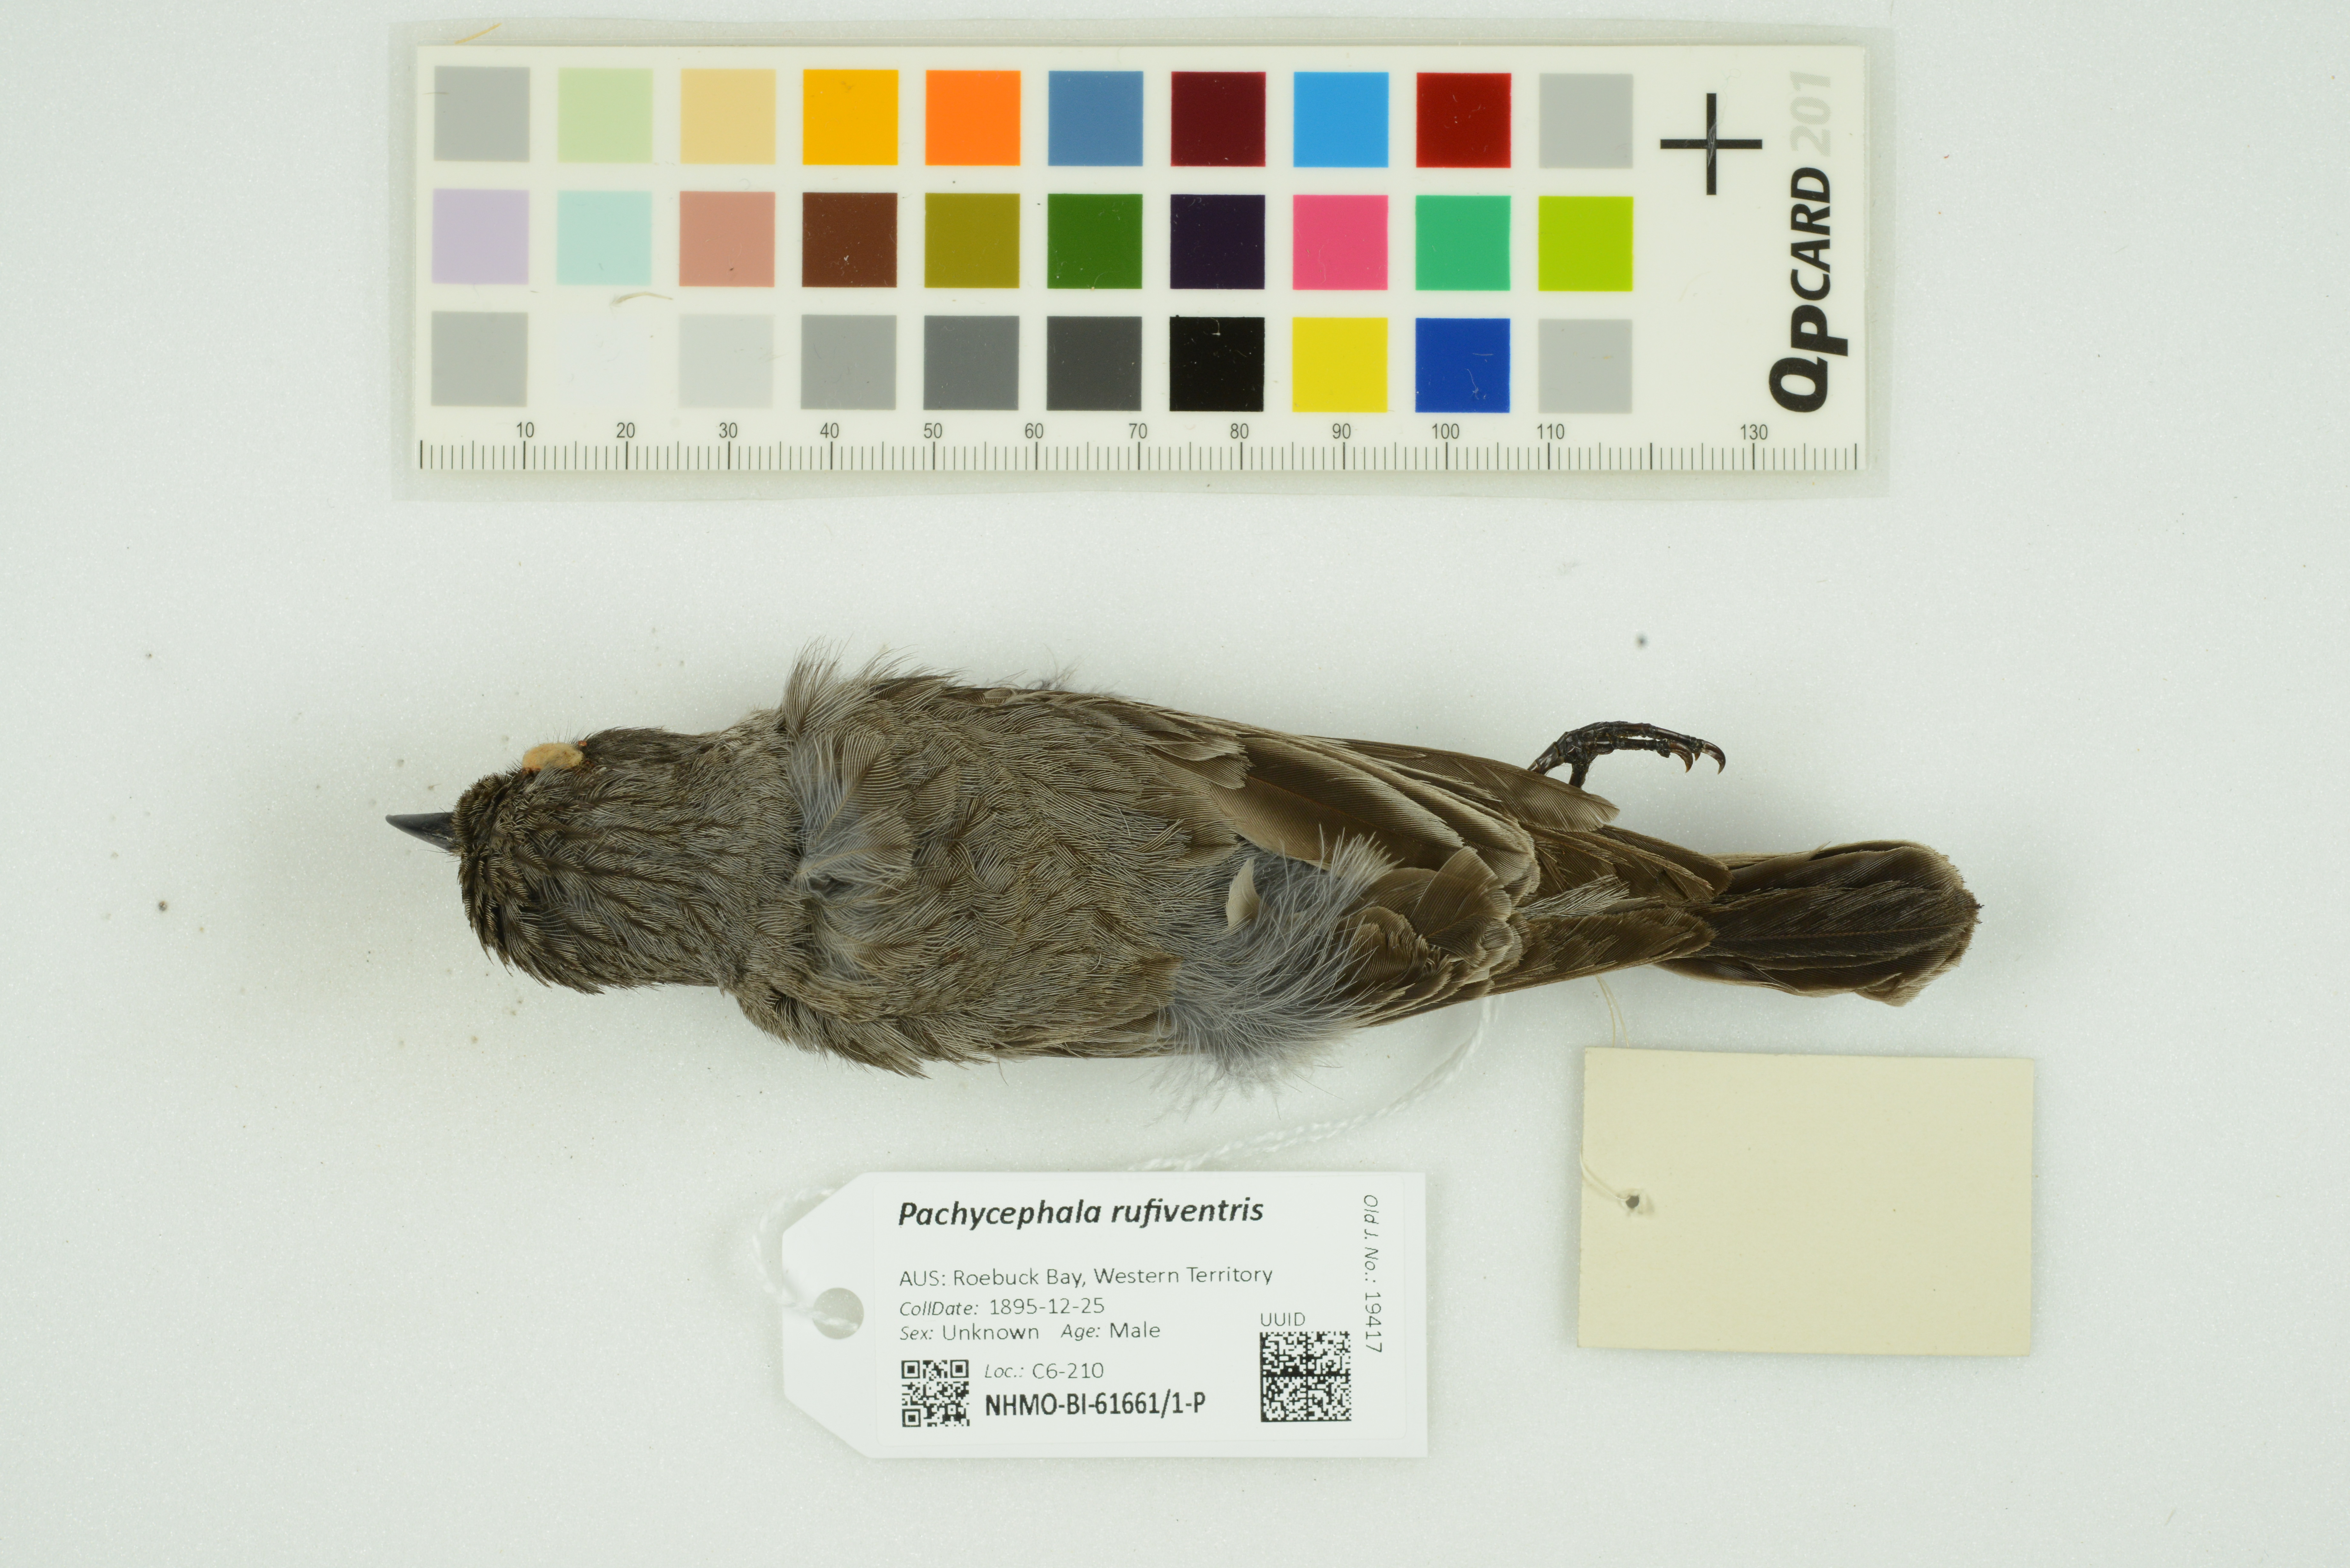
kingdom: Animalia
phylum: Chordata
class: Aves
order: Passeriformes
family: Pachycephalidae
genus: Pachycephala
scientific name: Pachycephala rufiventris
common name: Rufous whistler
